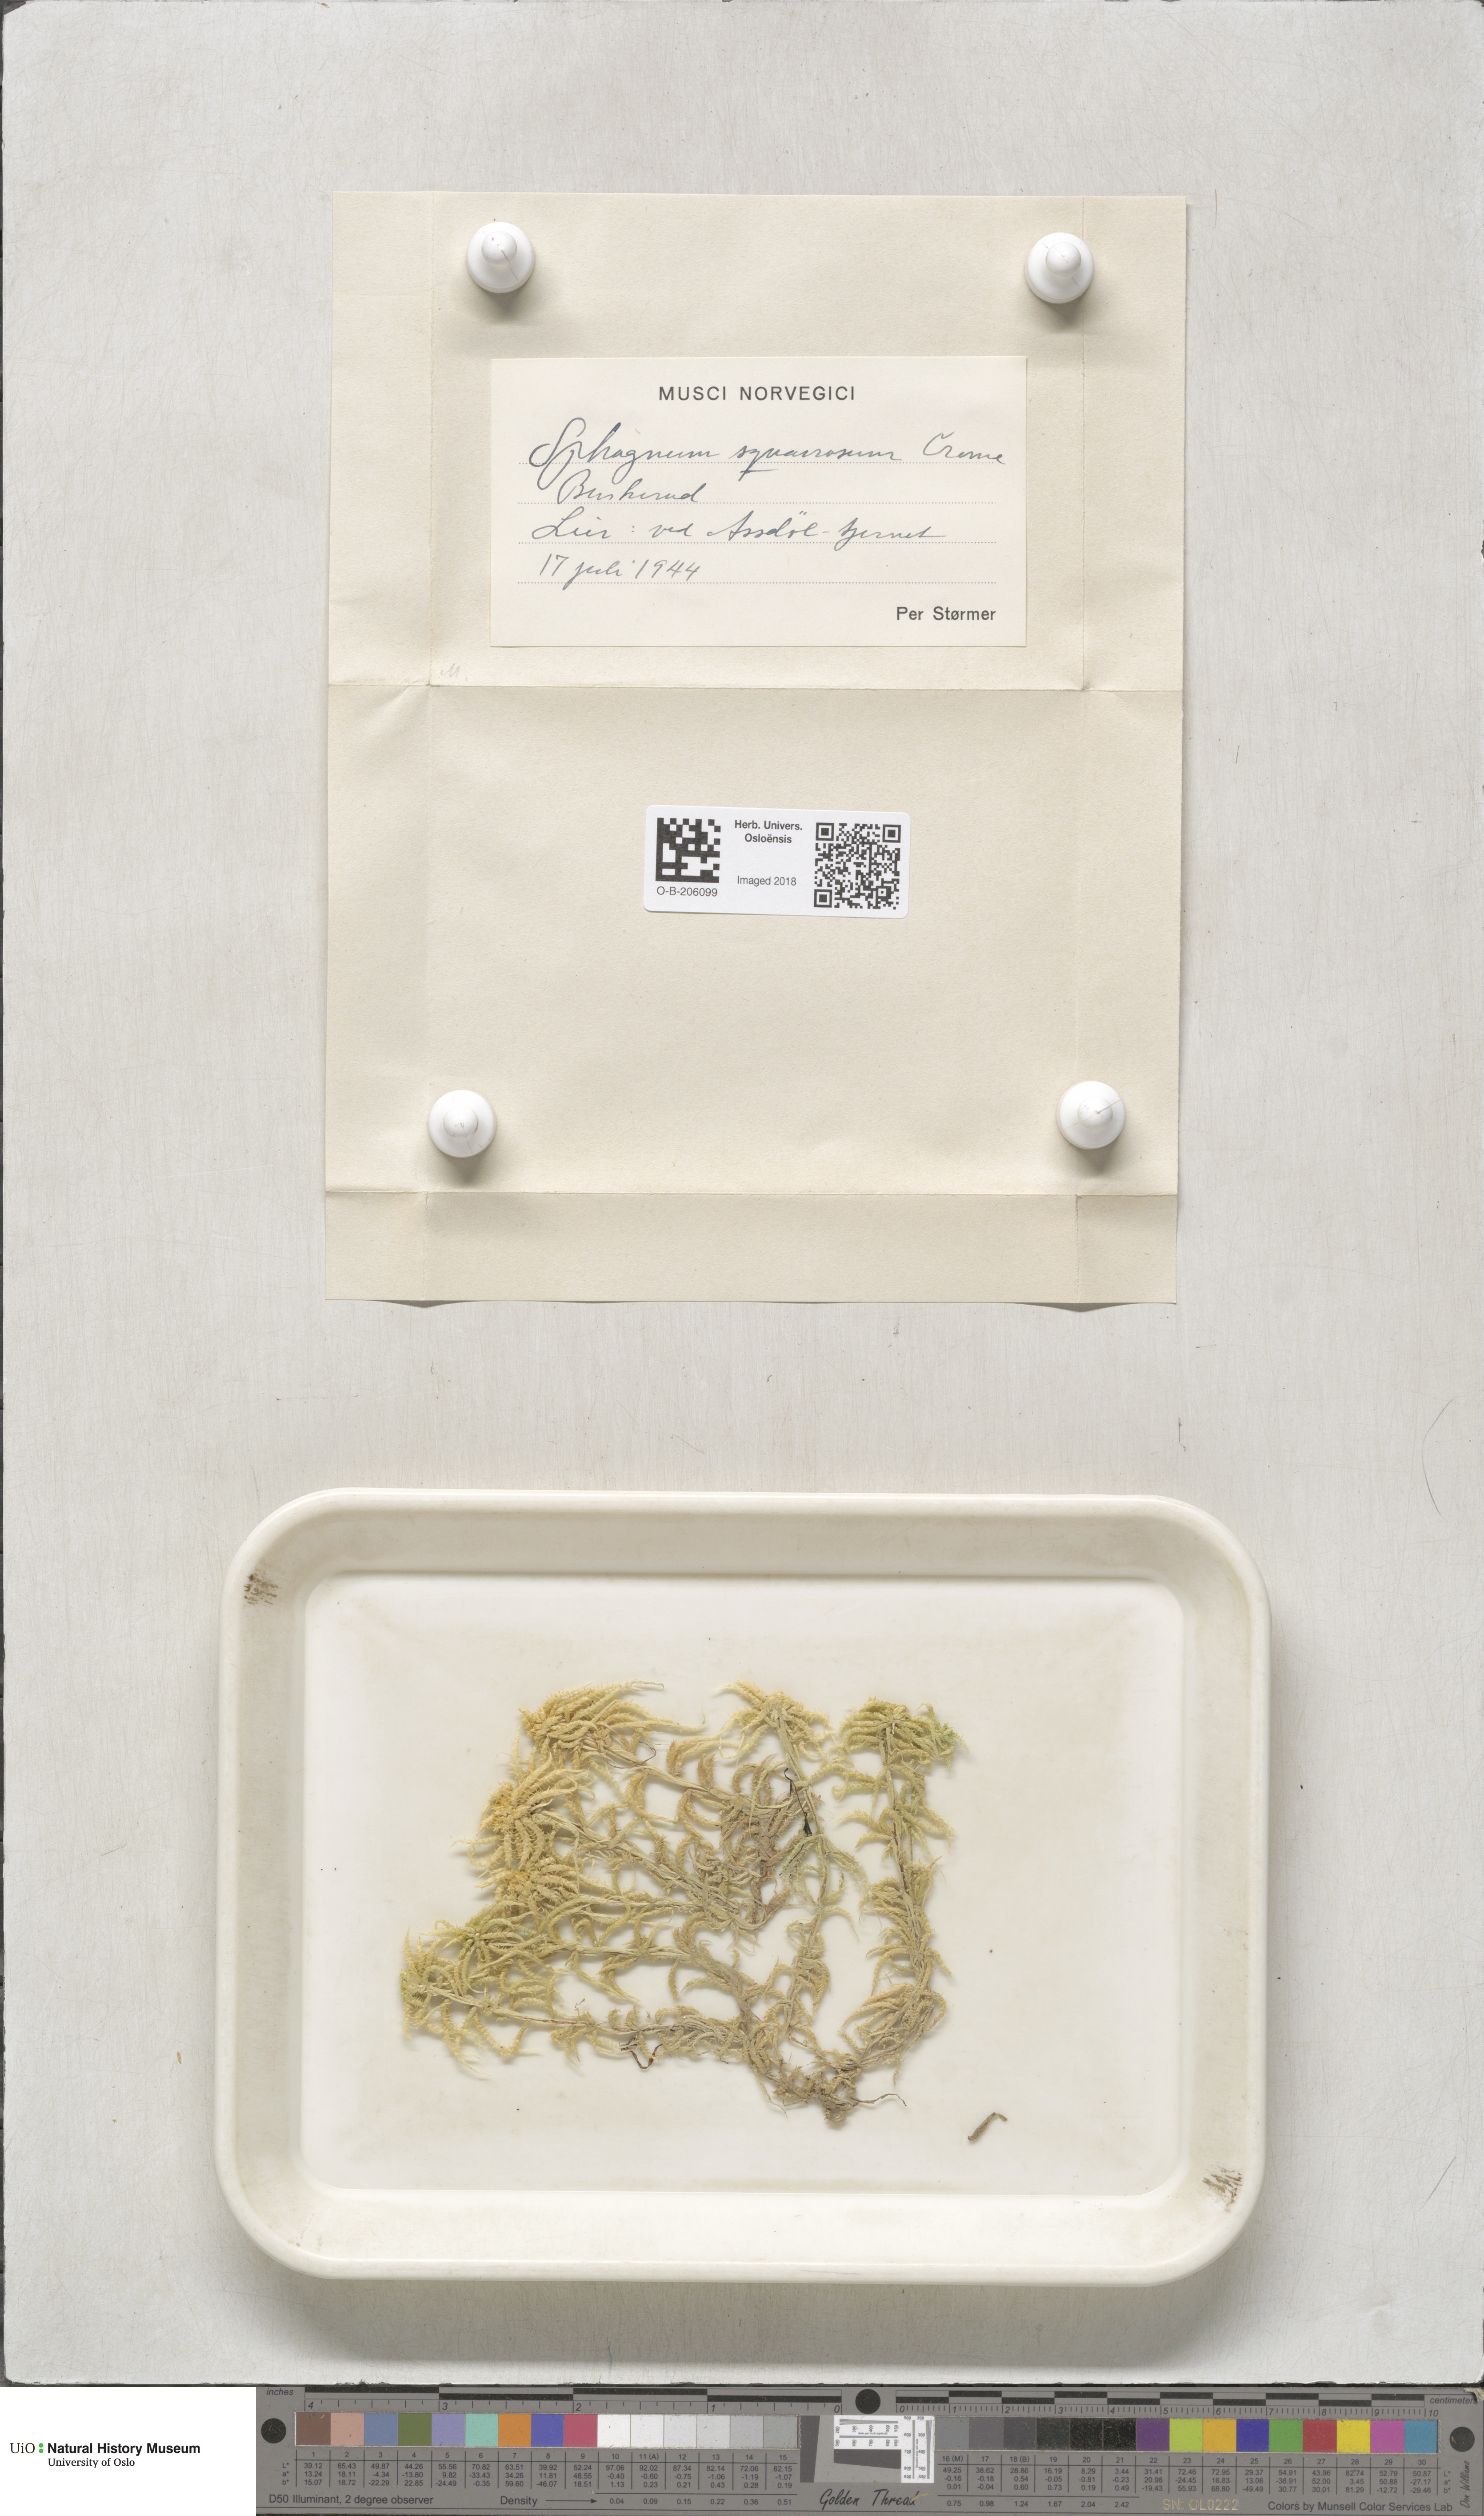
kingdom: Plantae
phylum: Bryophyta
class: Sphagnopsida
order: Sphagnales
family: Sphagnaceae
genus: Sphagnum
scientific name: Sphagnum squarrosum
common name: Shaggy peat moss
